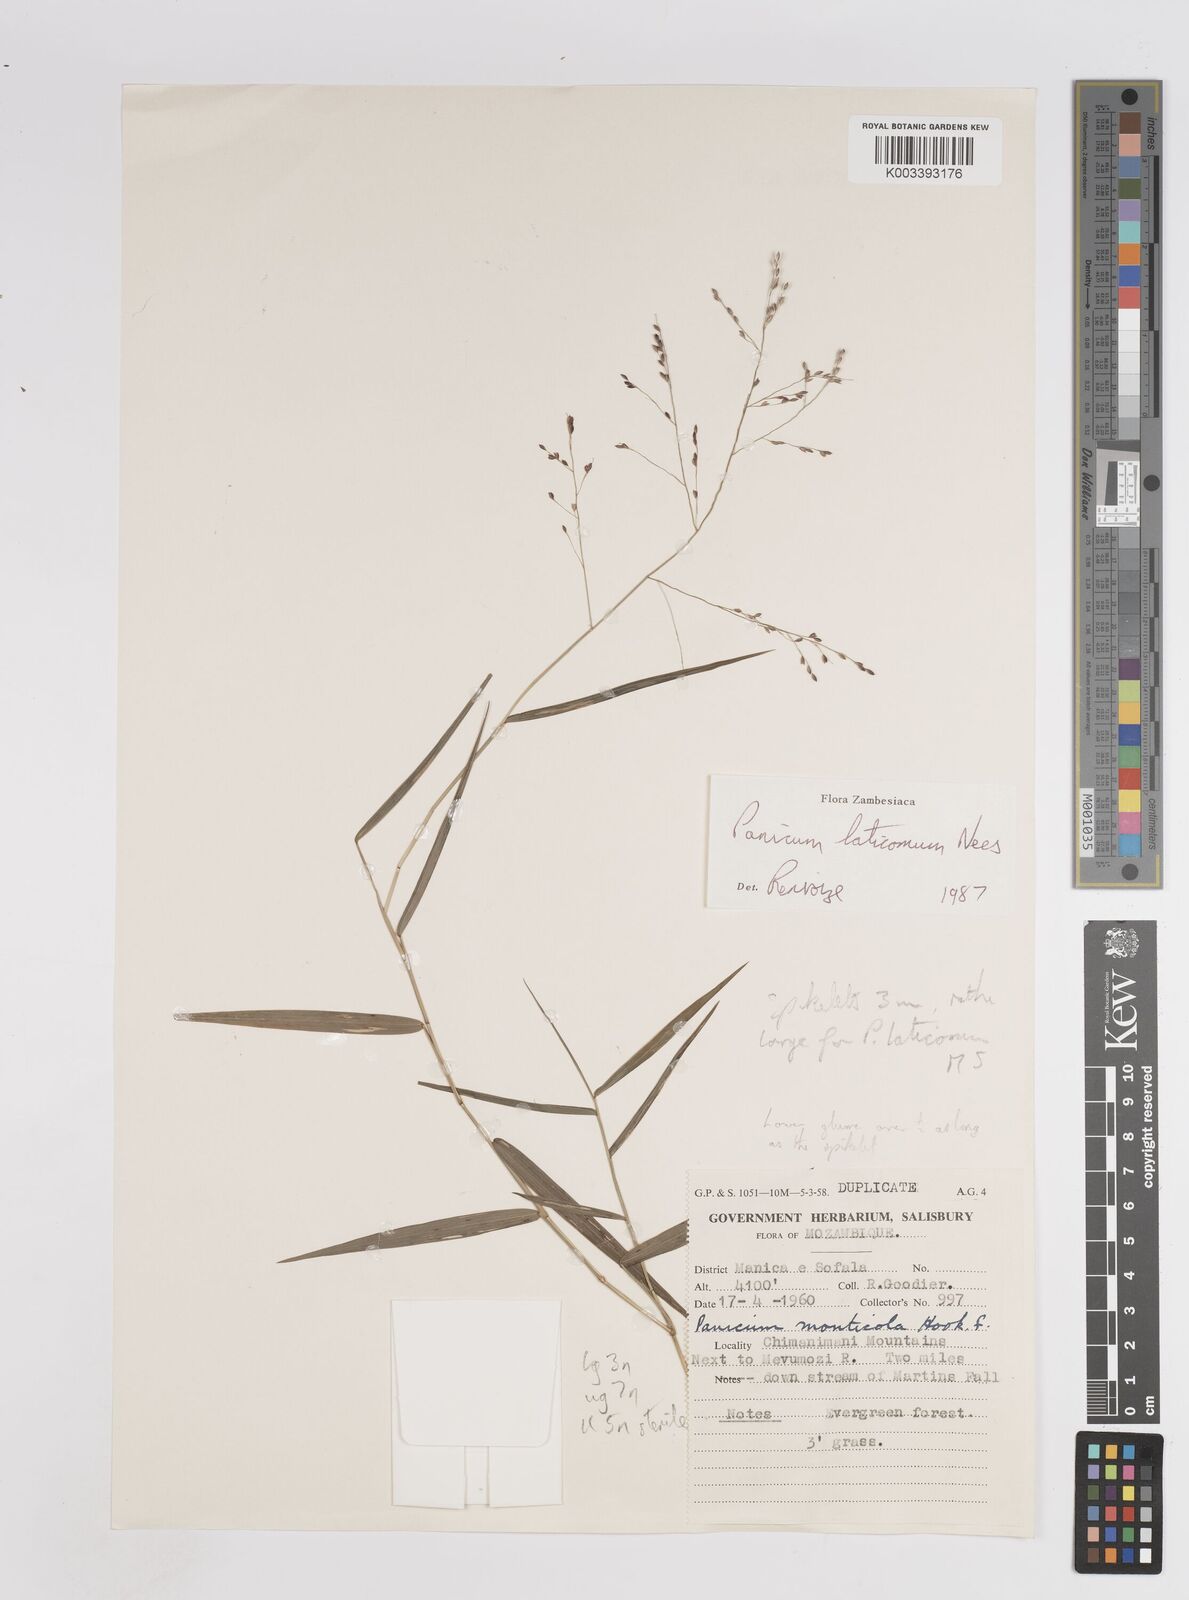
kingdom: Plantae
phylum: Tracheophyta
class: Liliopsida
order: Poales
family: Poaceae
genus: Panicum
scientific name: Panicum laticomum
